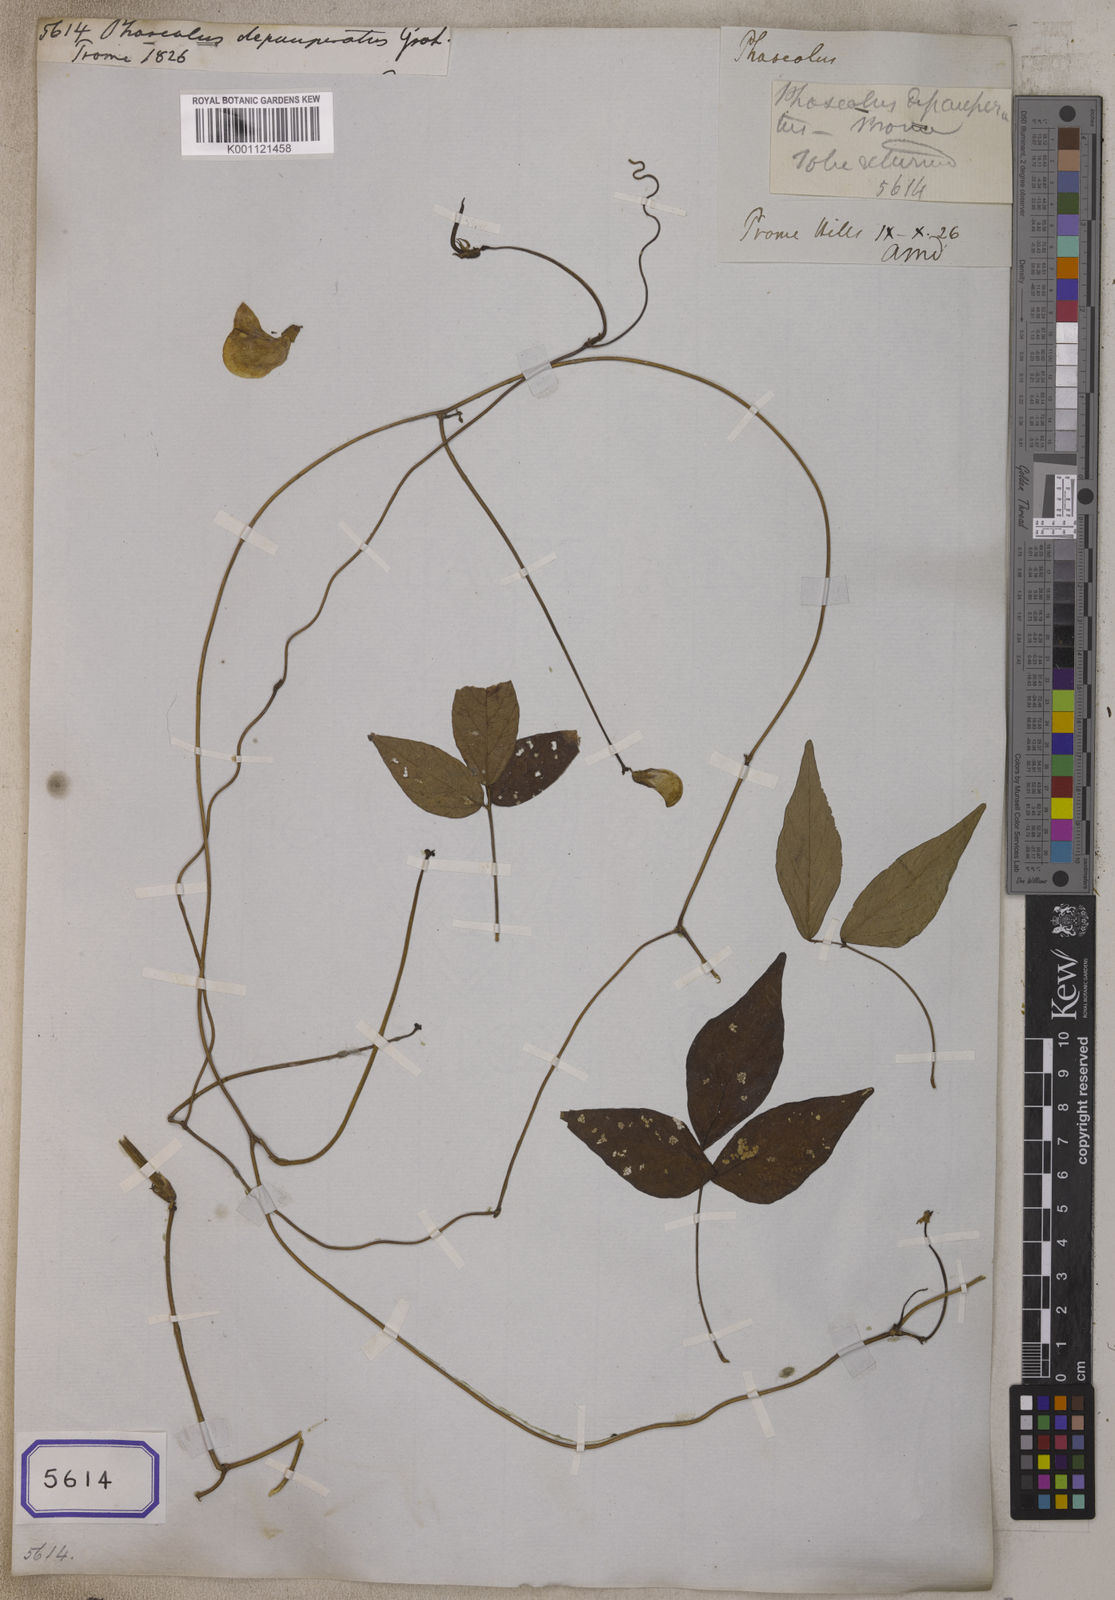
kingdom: Plantae
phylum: Tracheophyta
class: Magnoliopsida
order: Fabales
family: Fabaceae
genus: Phaseolus
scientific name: Phaseolus depauperatus
